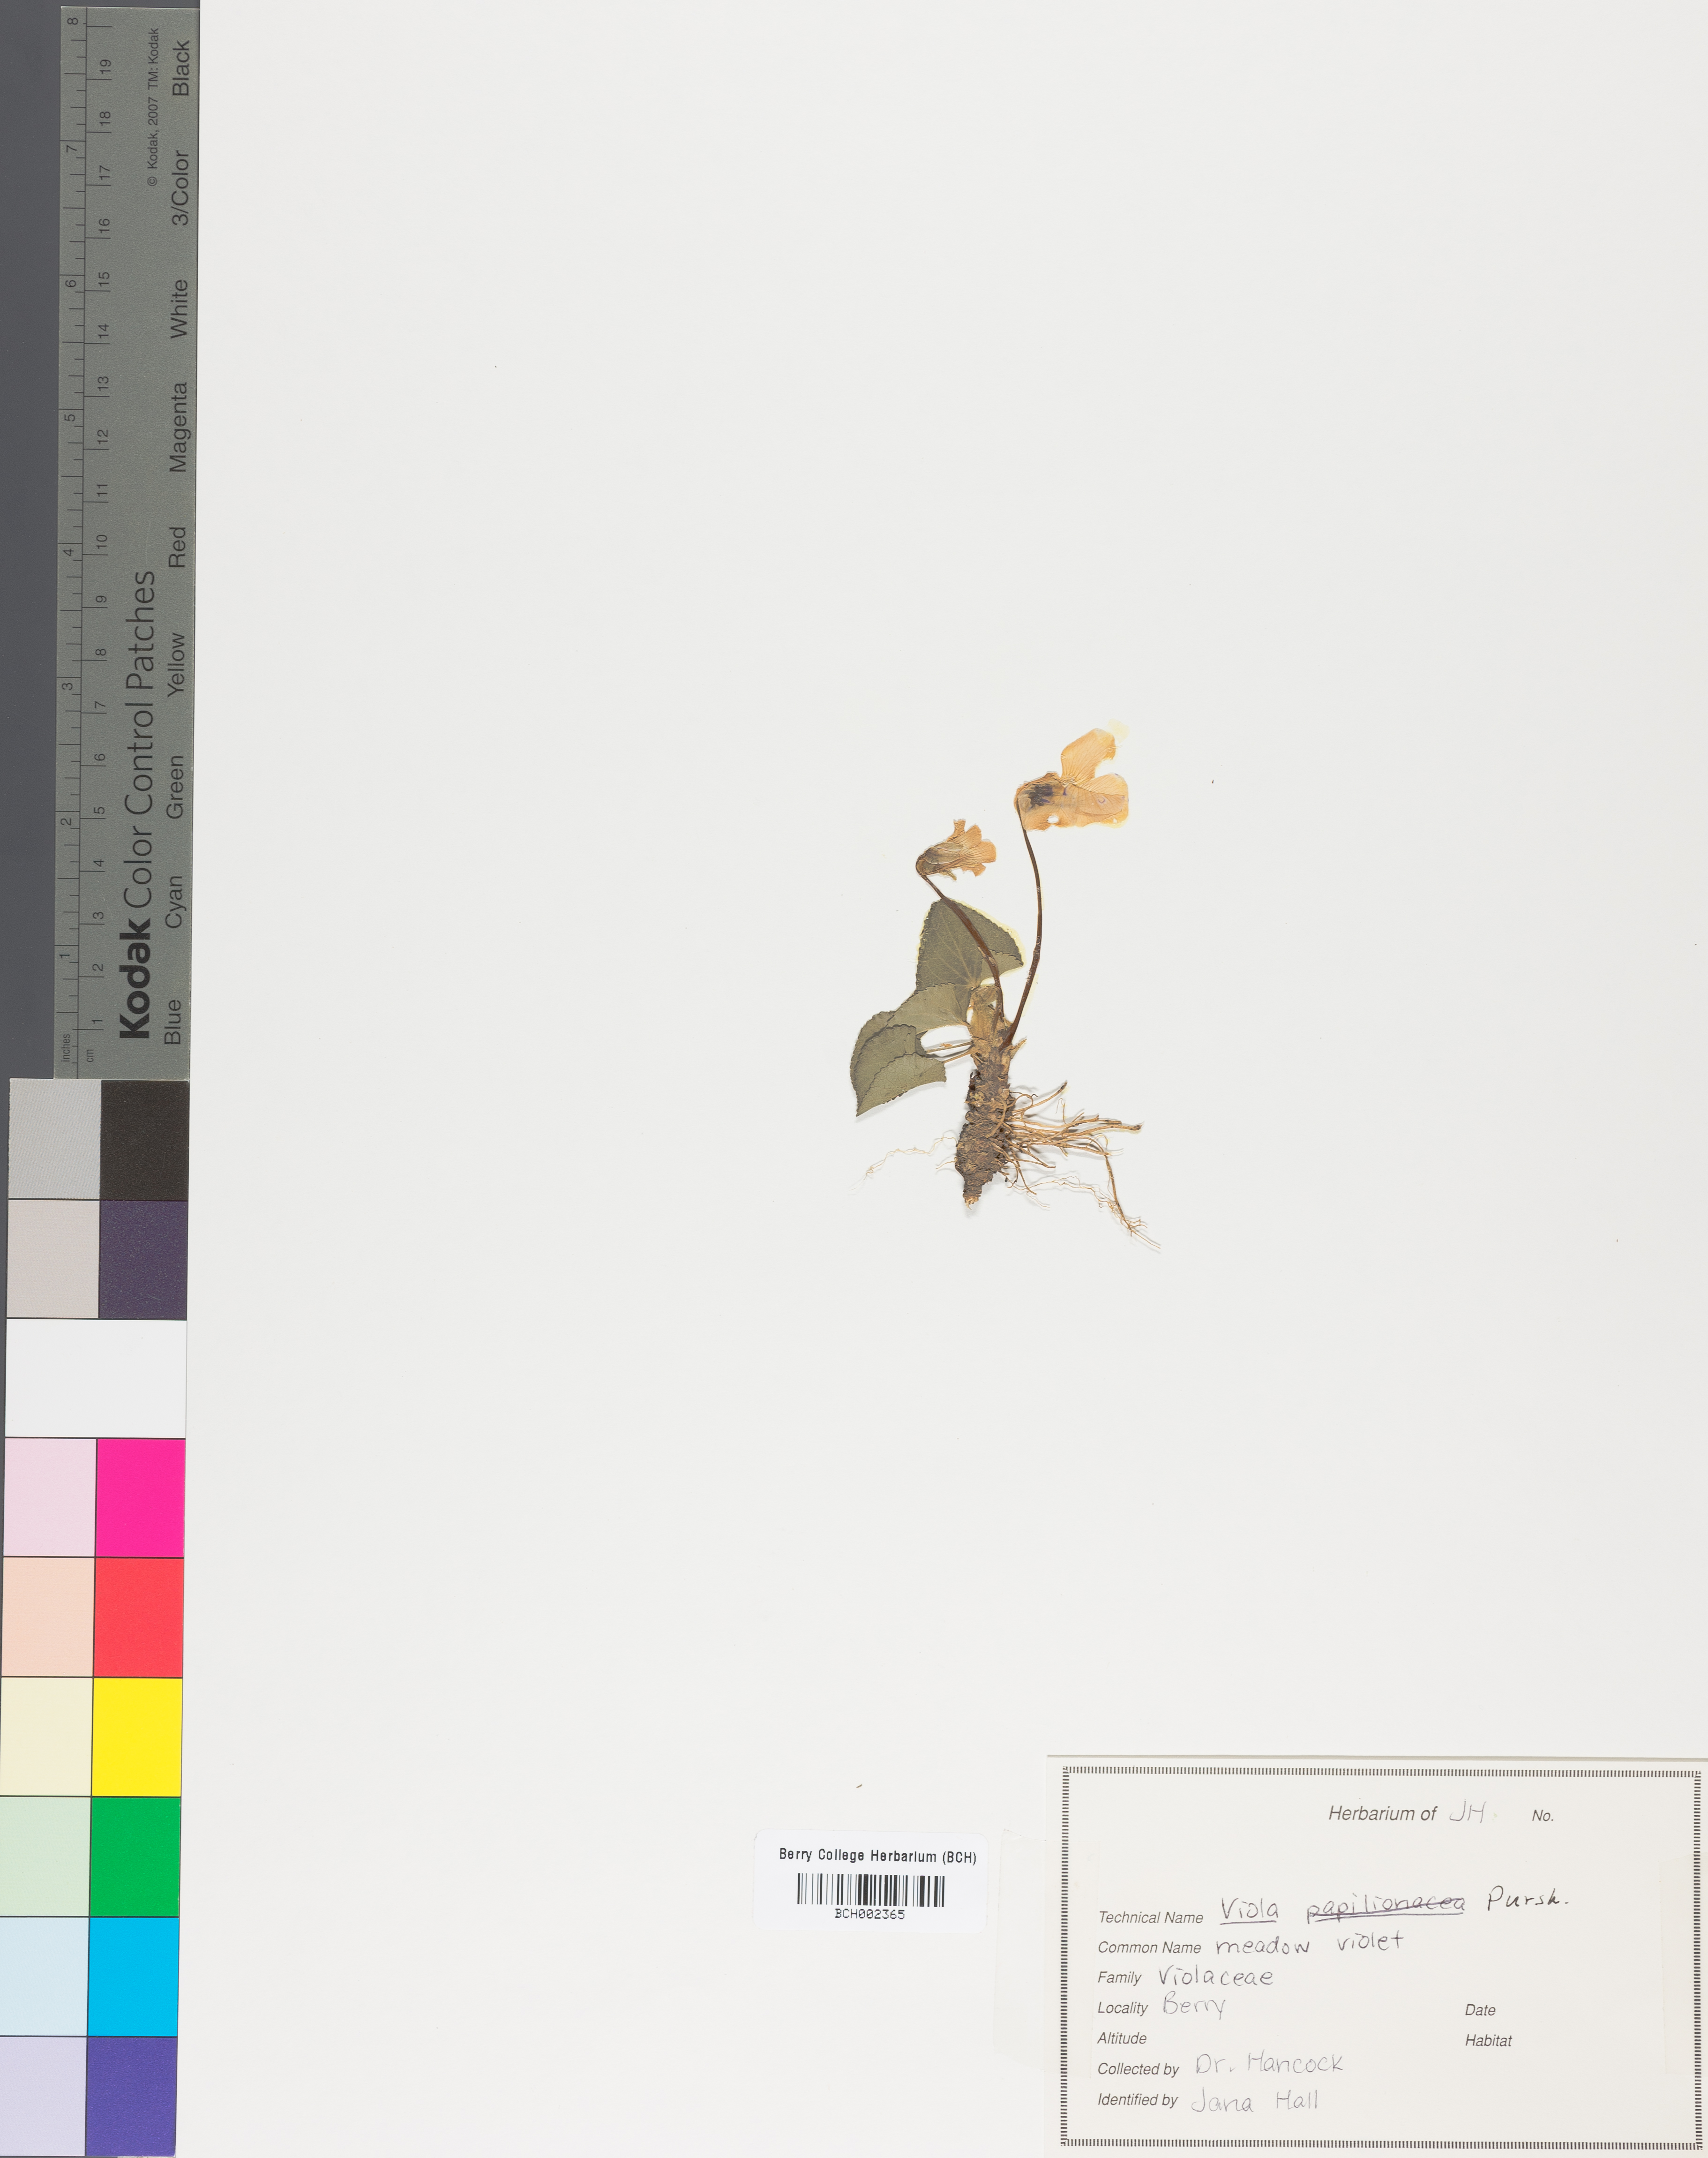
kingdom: Plantae
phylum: Tracheophyta
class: Magnoliopsida
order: Malpighiales
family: Violaceae
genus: Viola
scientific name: Viola sororia
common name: Dooryard violet
